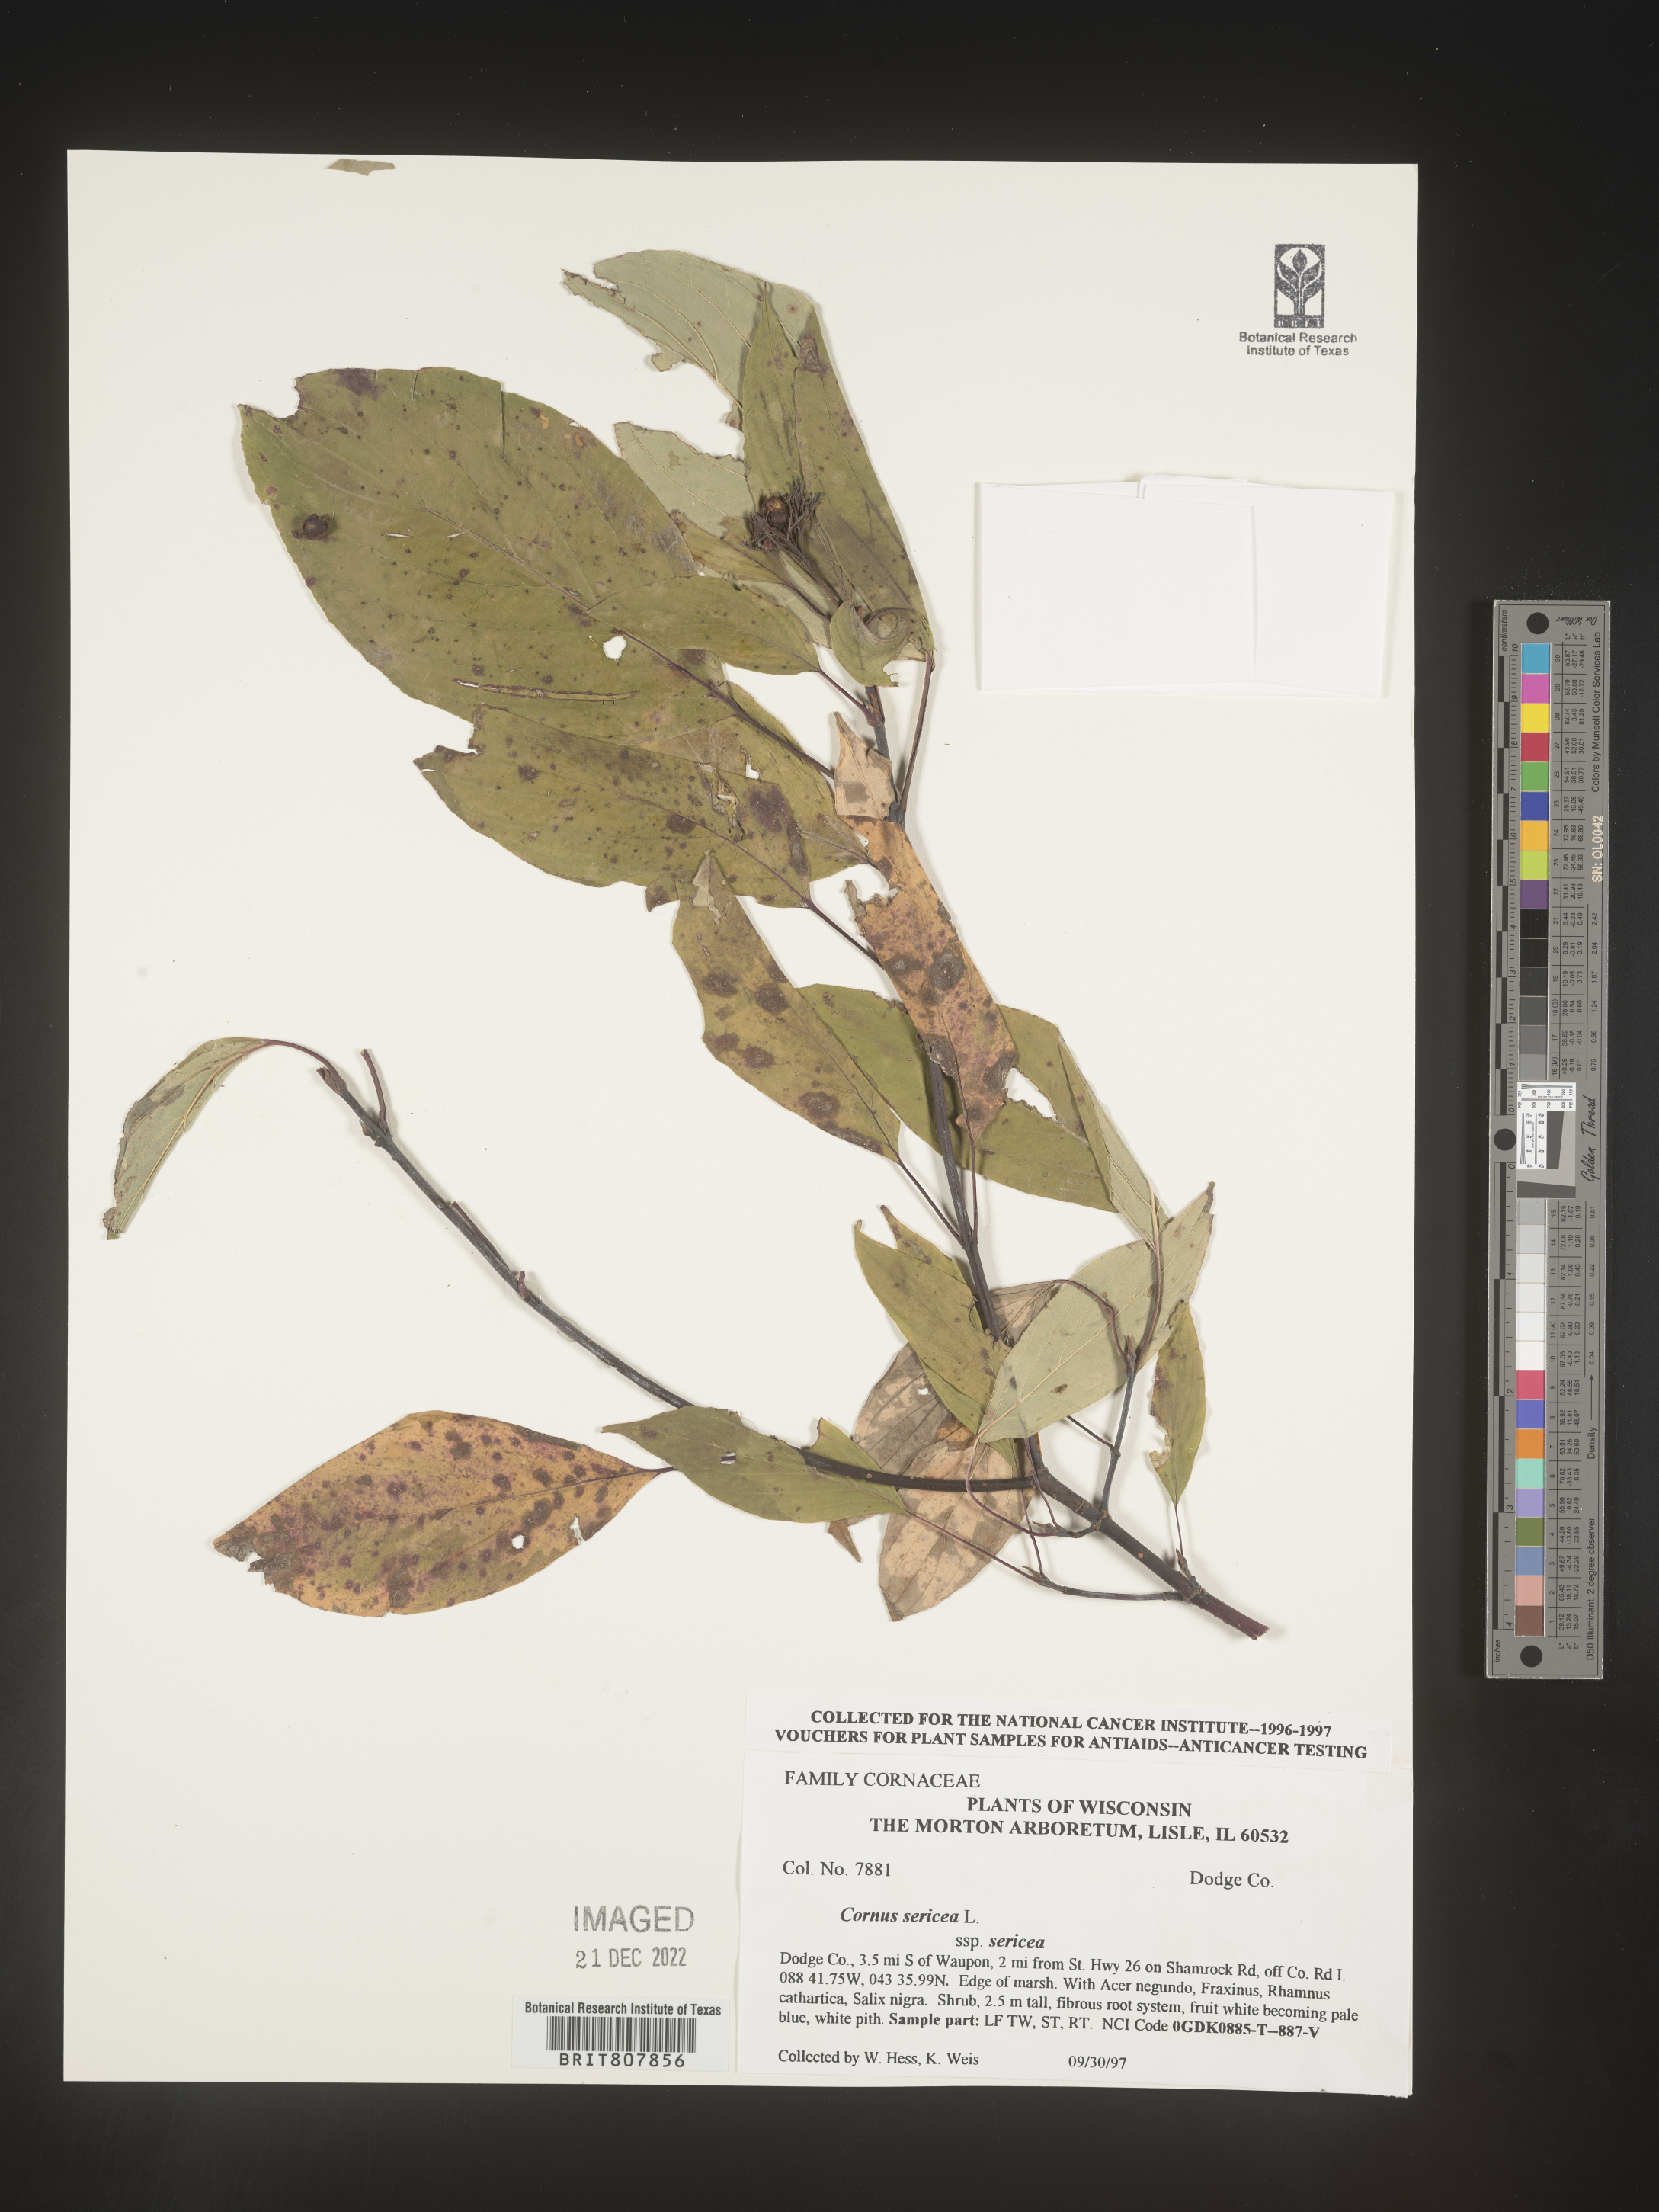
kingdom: Plantae
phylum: Tracheophyta
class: Magnoliopsida
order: Cornales
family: Cornaceae
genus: Cornus
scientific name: Cornus
